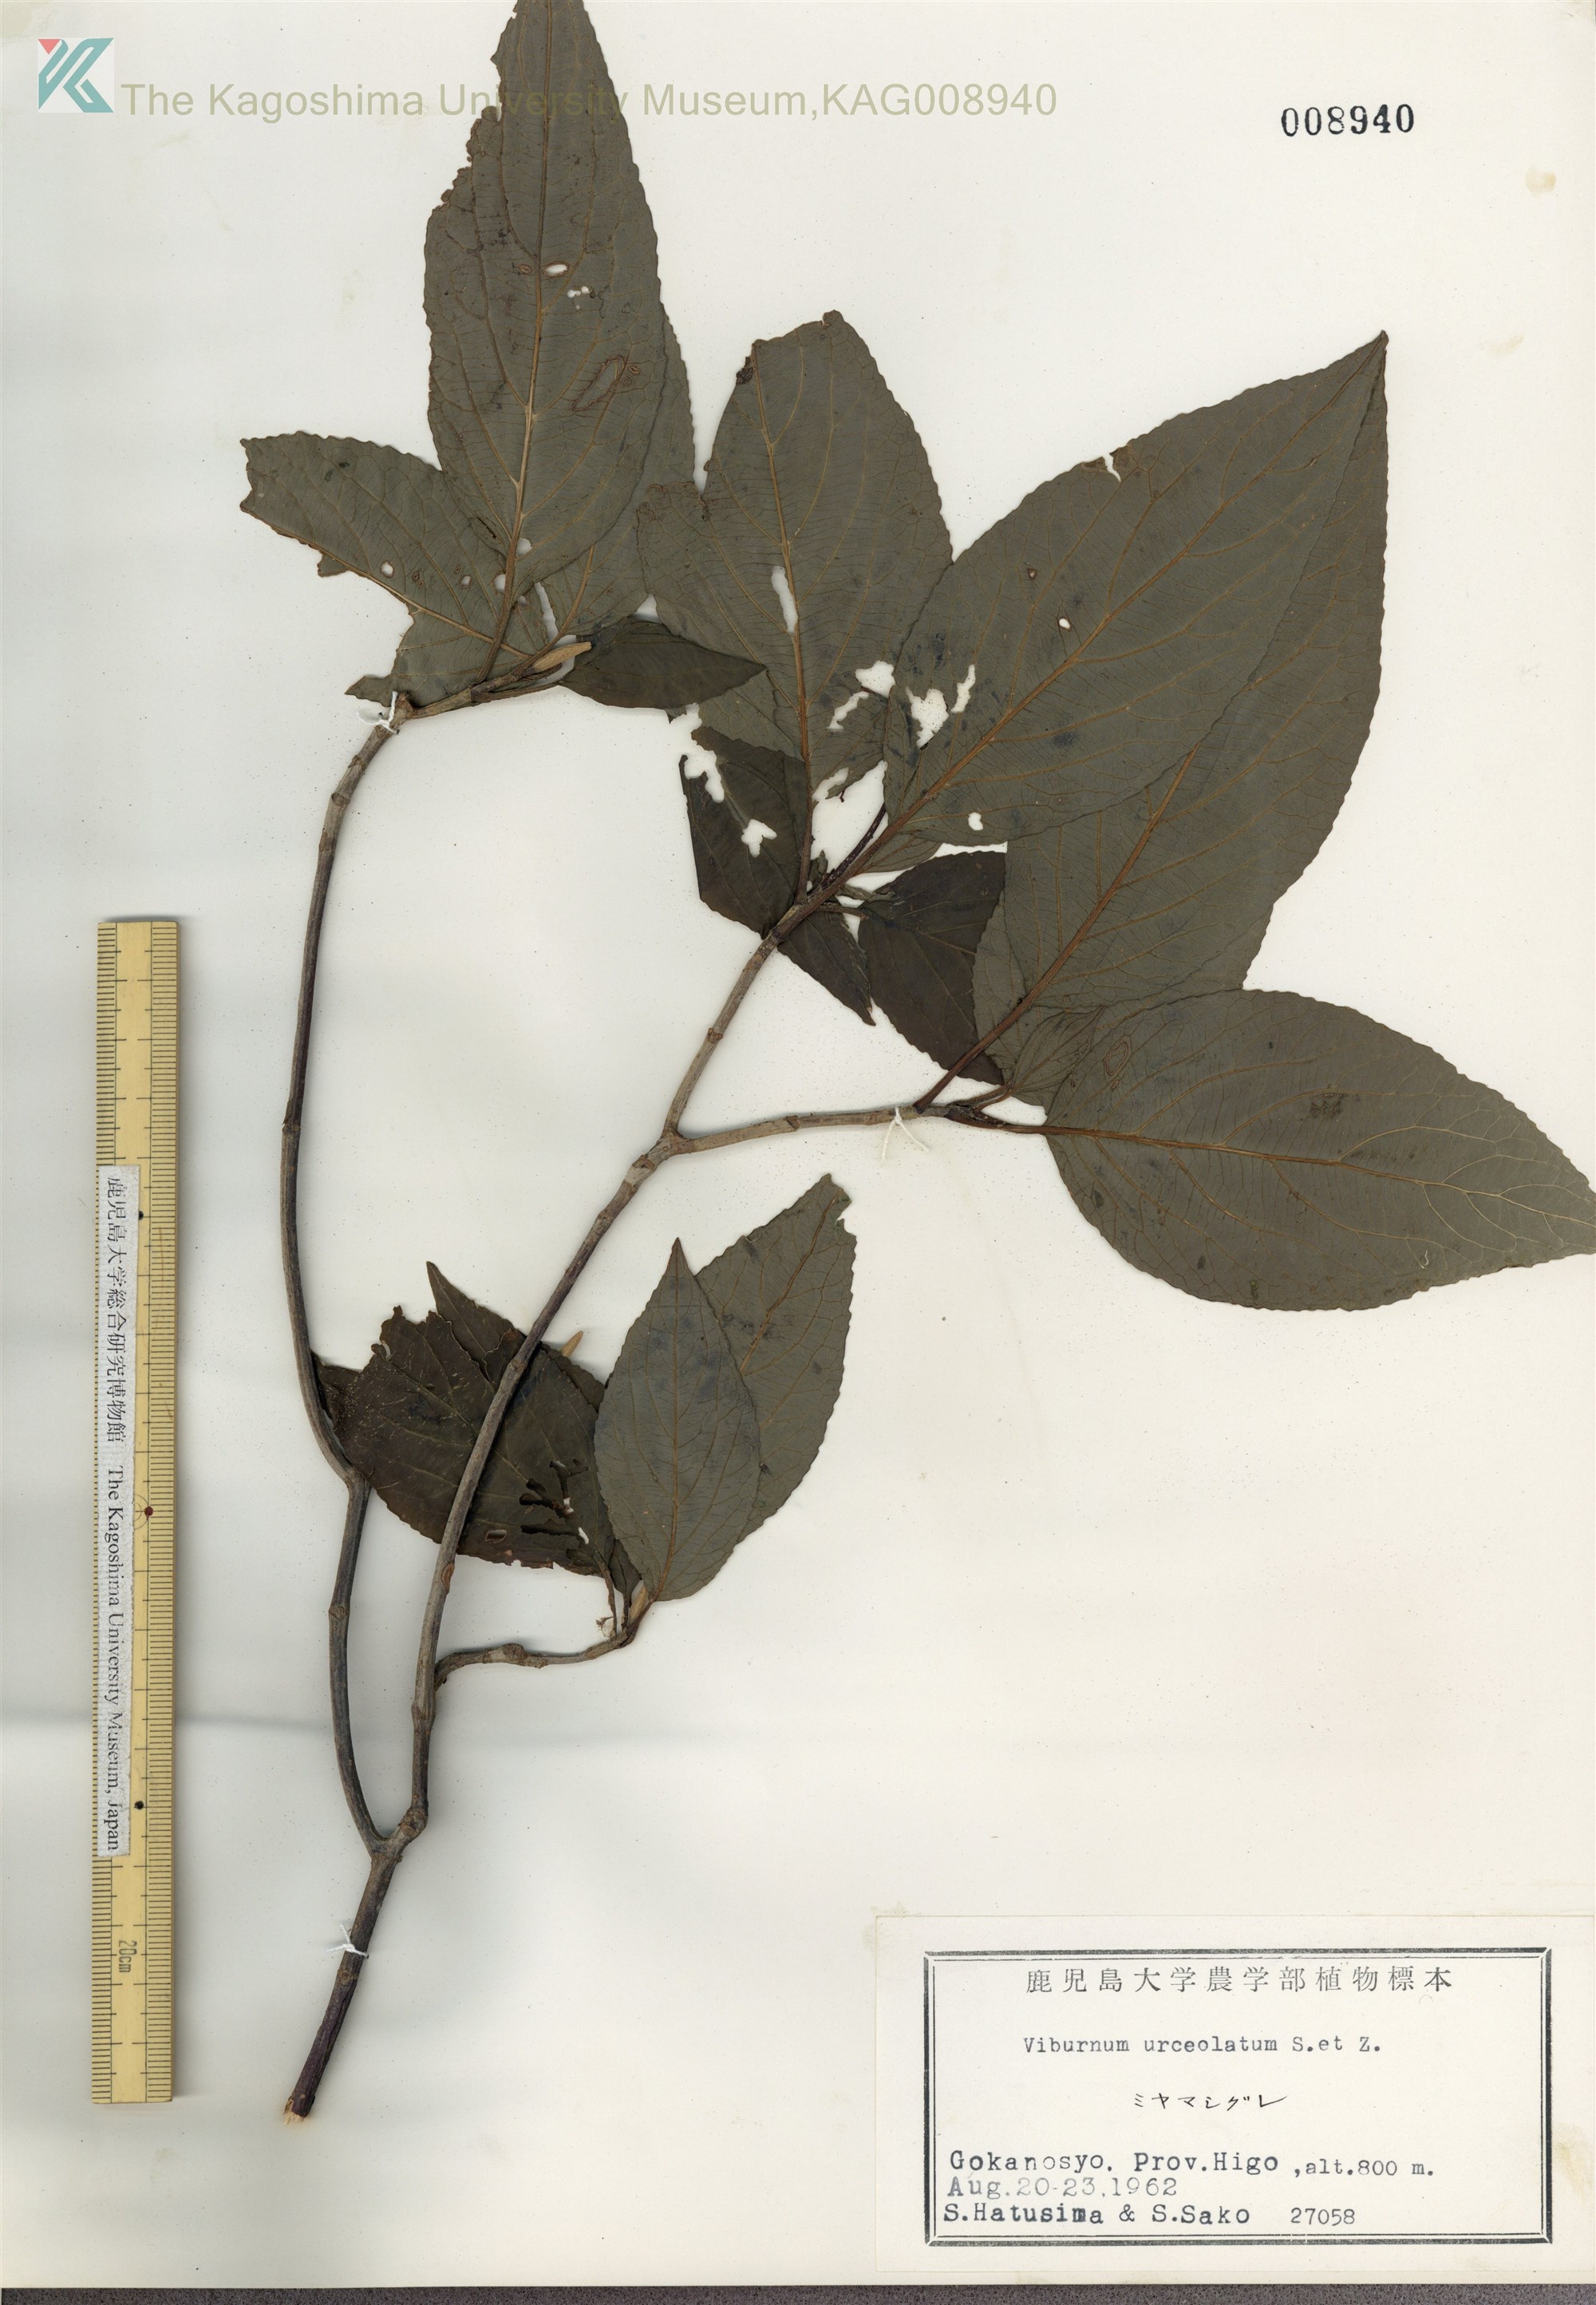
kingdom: Plantae
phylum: Tracheophyta
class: Magnoliopsida
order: Dipsacales
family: Viburnaceae
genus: Viburnum
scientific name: Viburnum urceolatum
